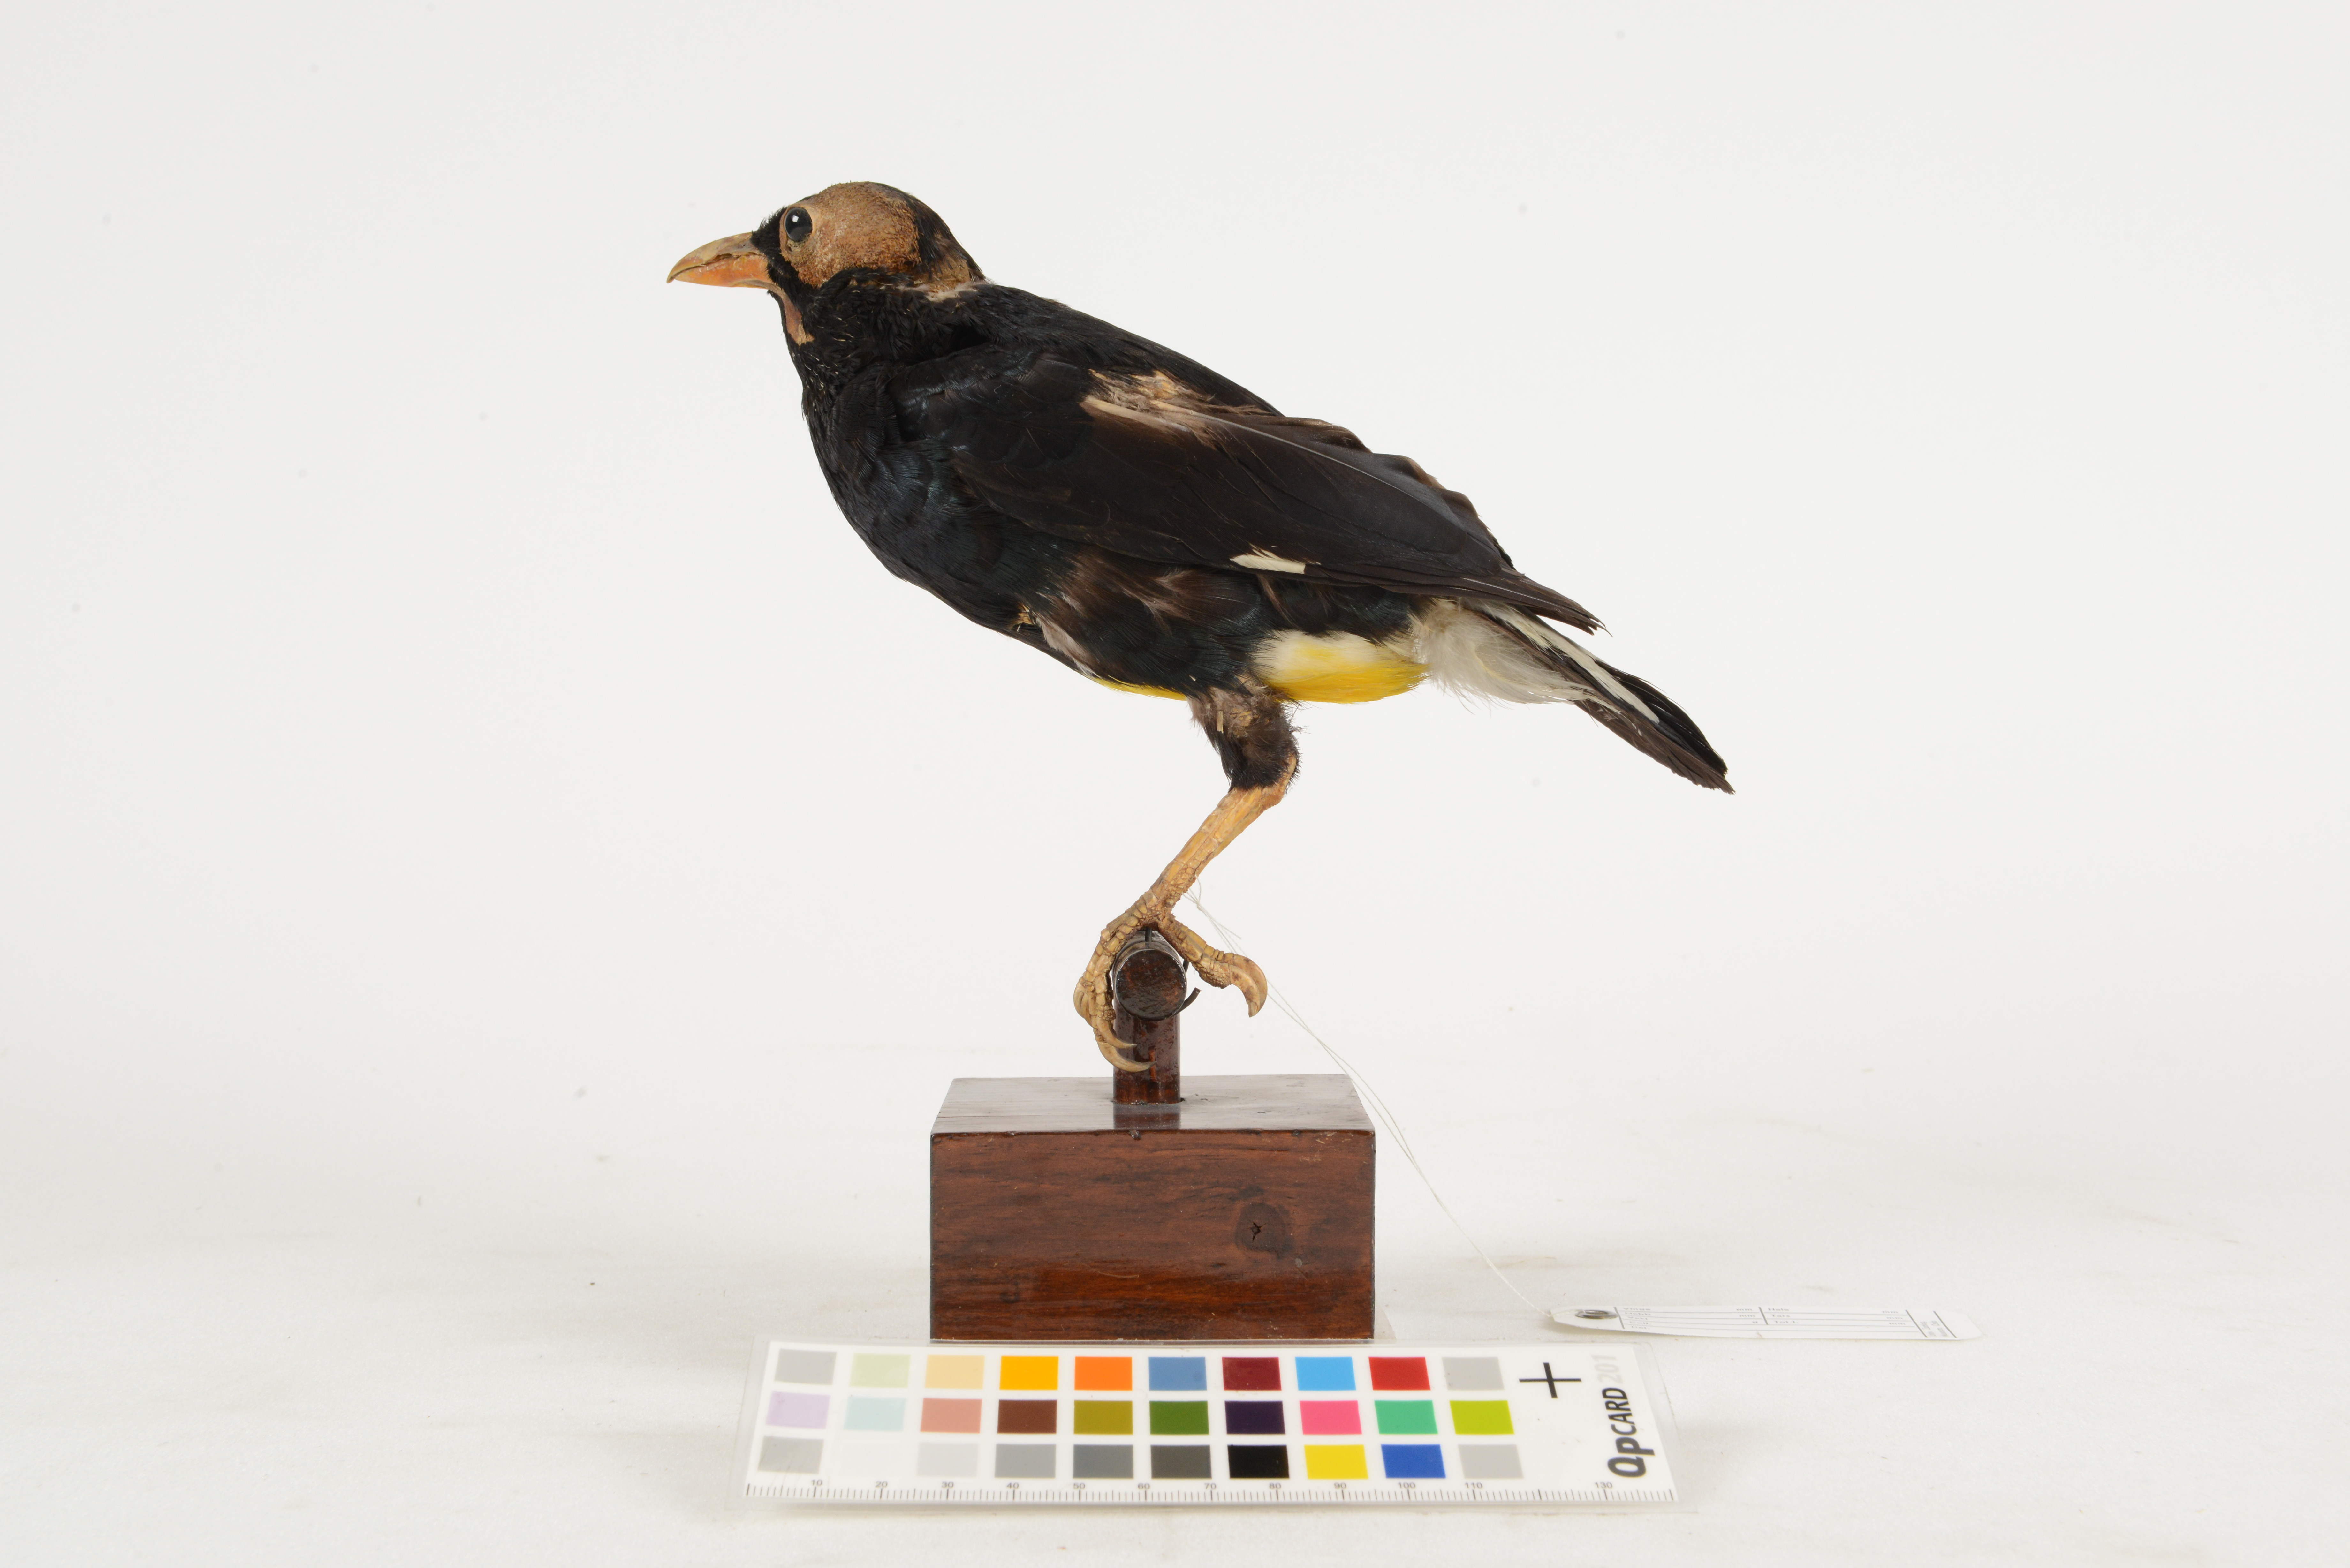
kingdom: Animalia
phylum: Chordata
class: Aves
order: Passeriformes
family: Sturnidae
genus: Mino
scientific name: Mino dumontii
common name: Yellow-faced myna
